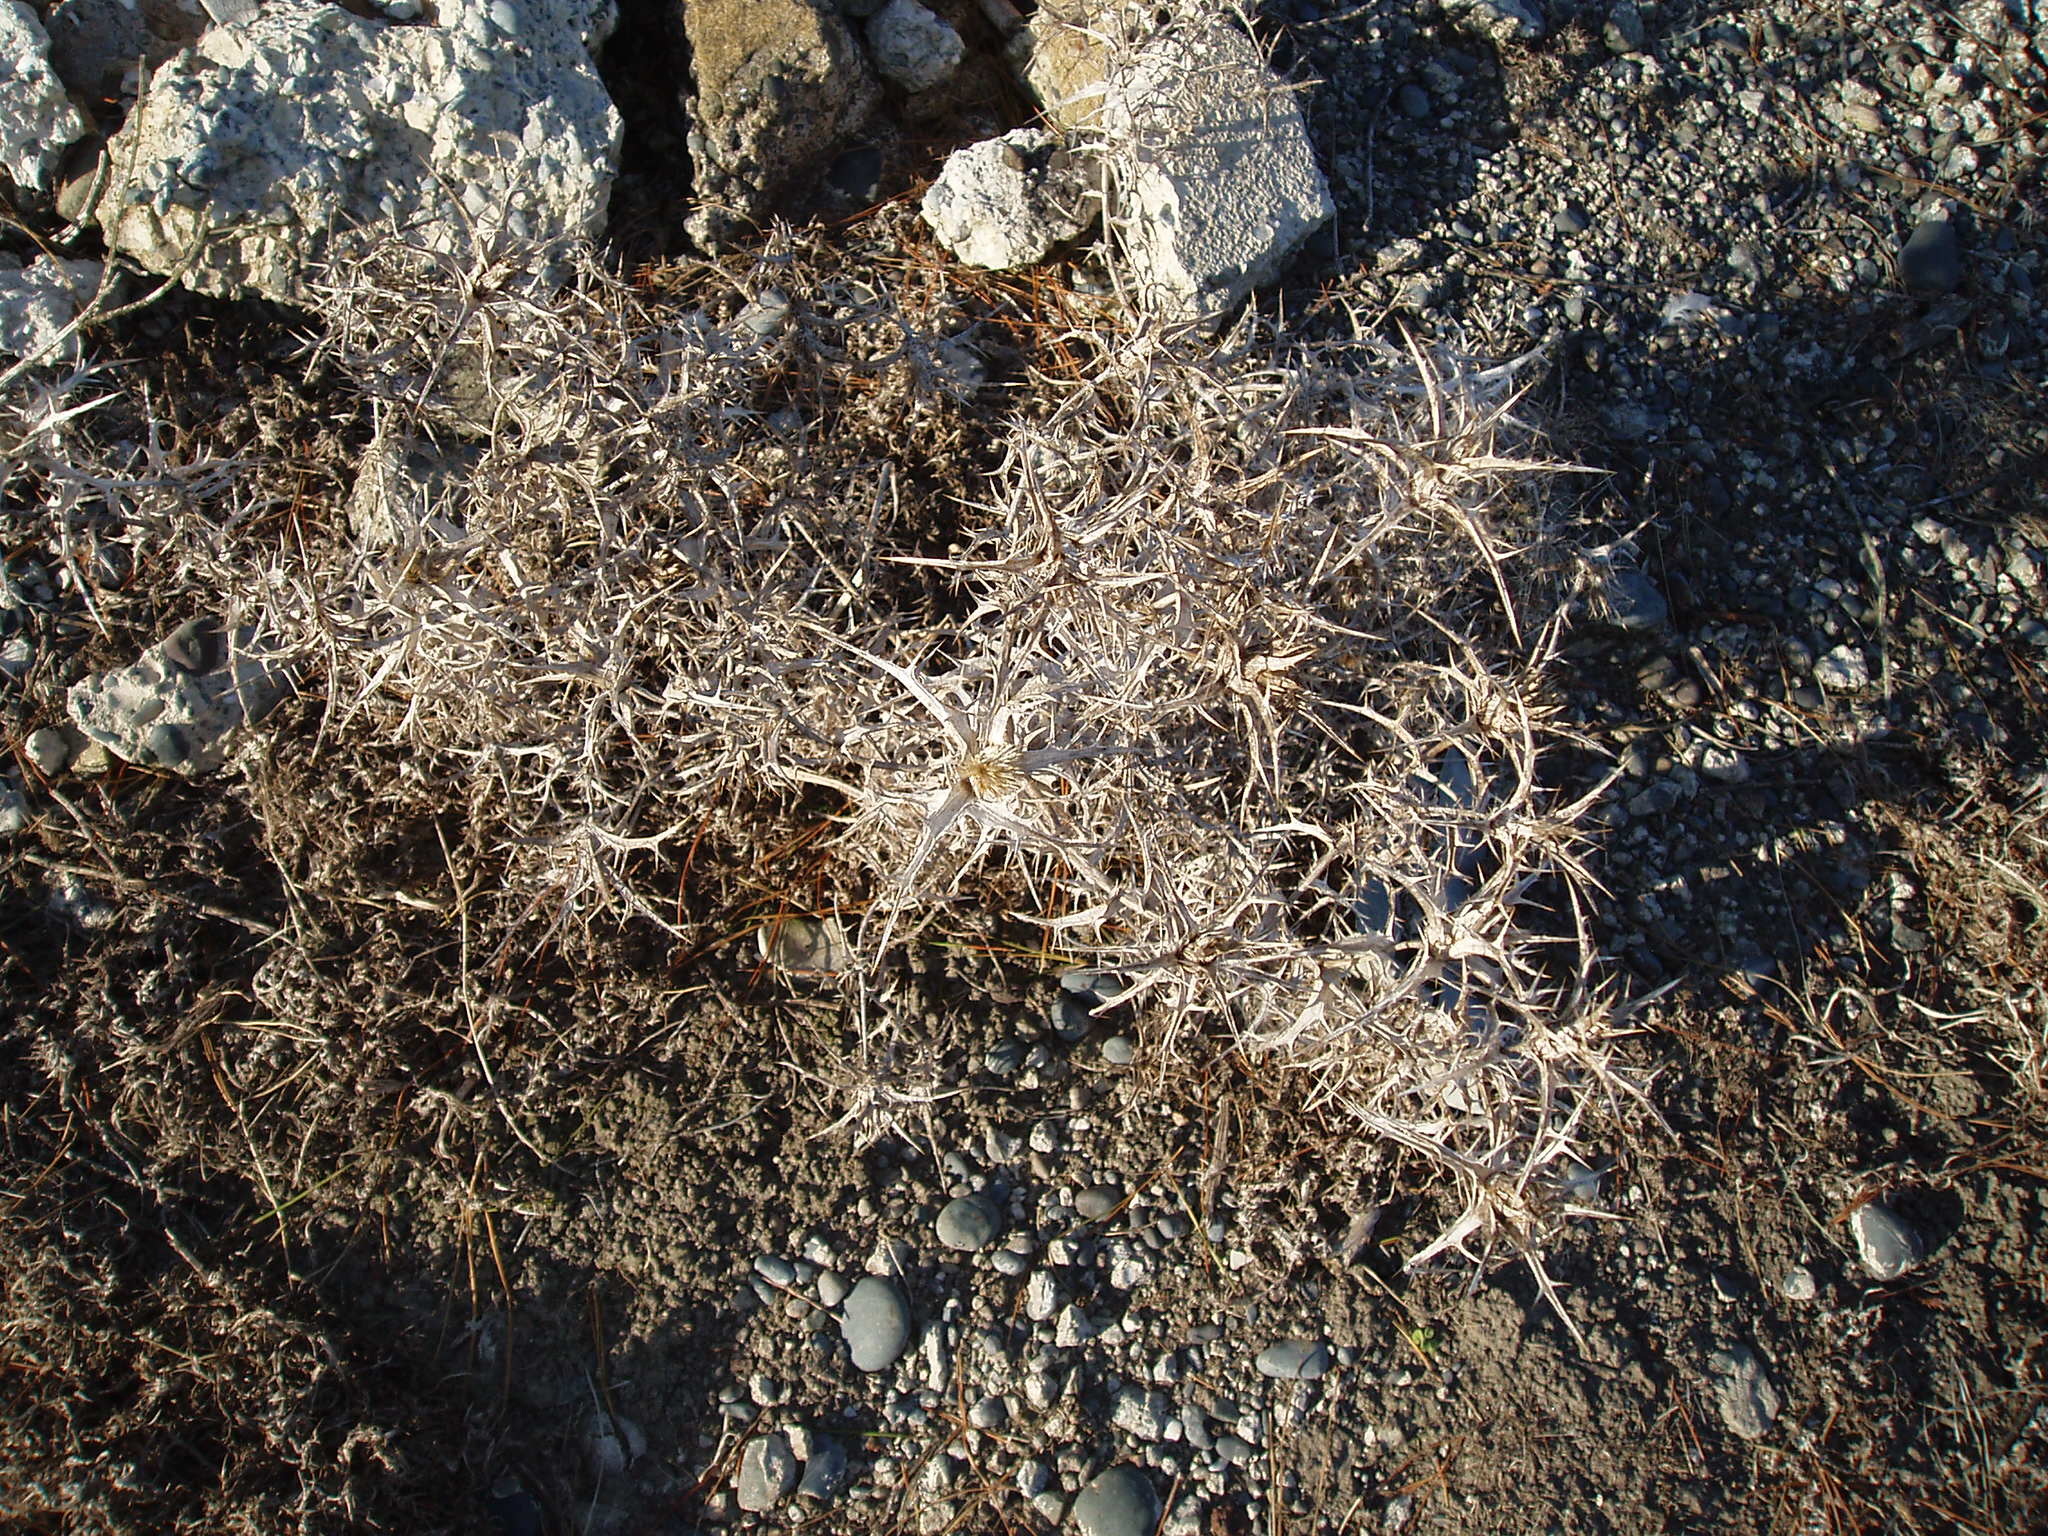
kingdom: Plantae
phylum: Tracheophyta
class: Magnoliopsida
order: Asterales
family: Asteraceae
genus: Carthamus
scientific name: Carthamus lanatus
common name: Downy safflower
